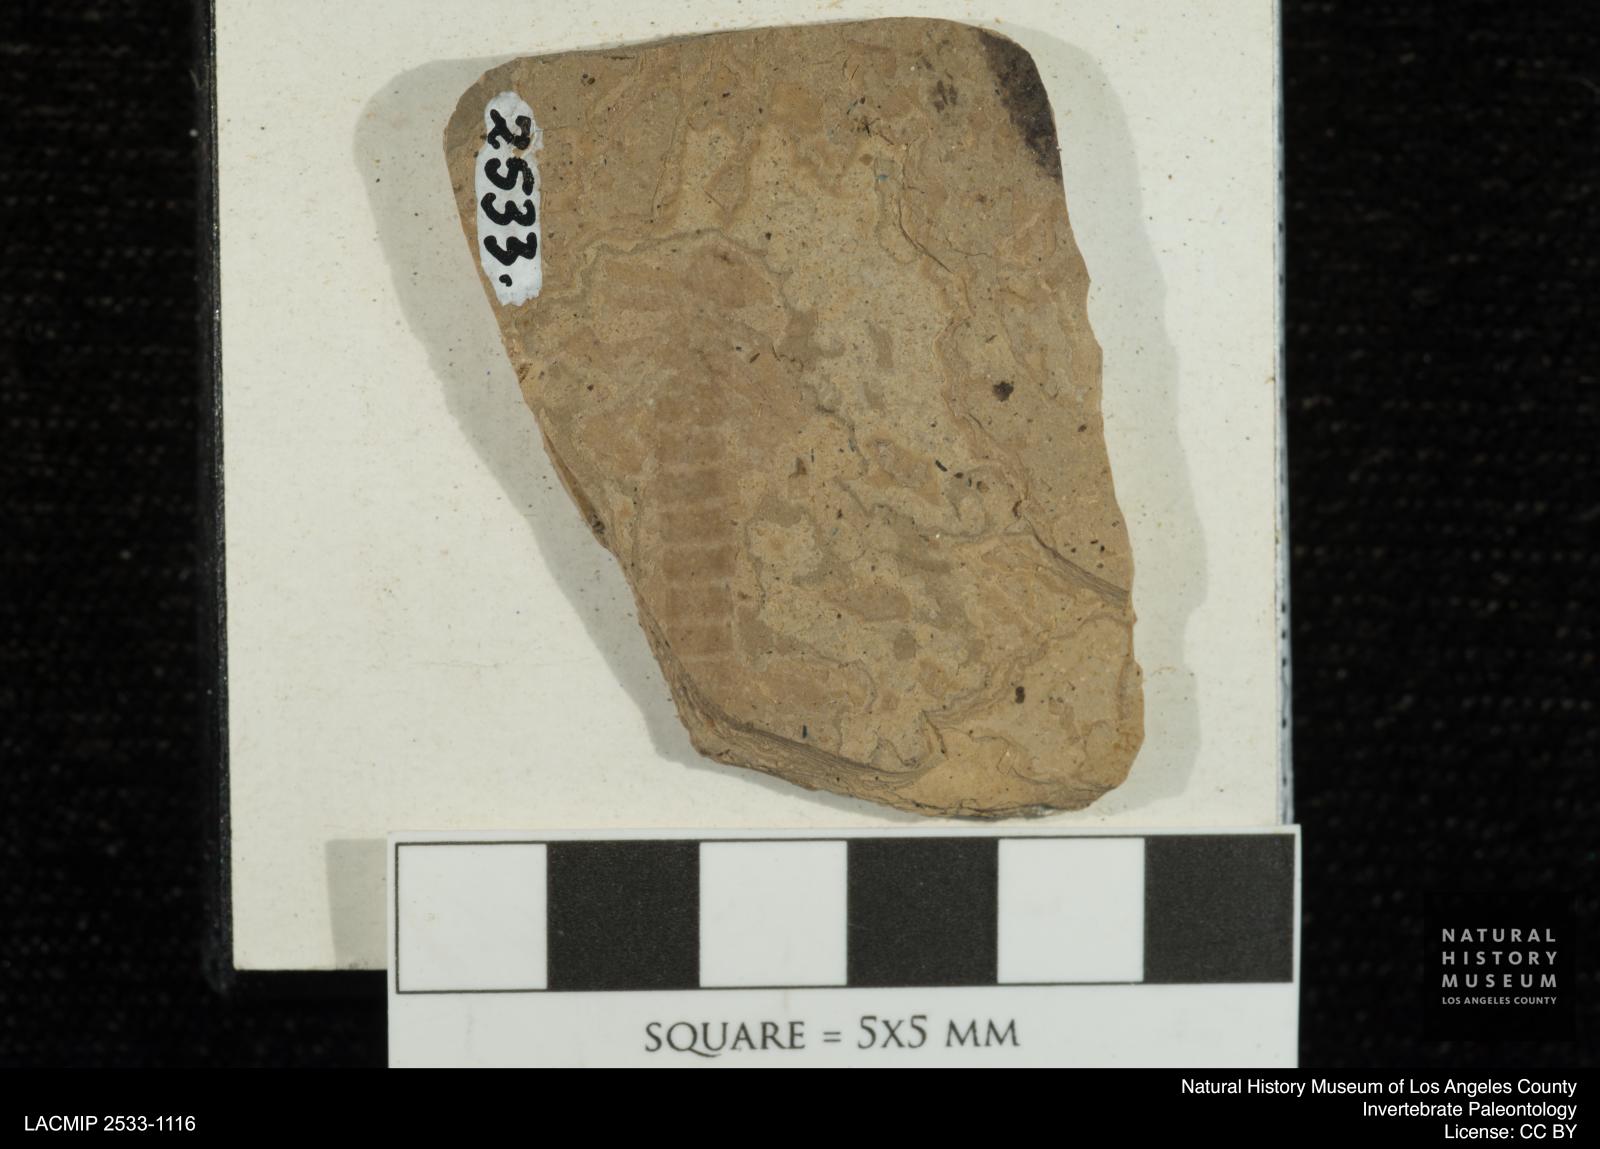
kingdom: Animalia
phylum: Arthropoda
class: Insecta
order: Odonata
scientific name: Odonata
